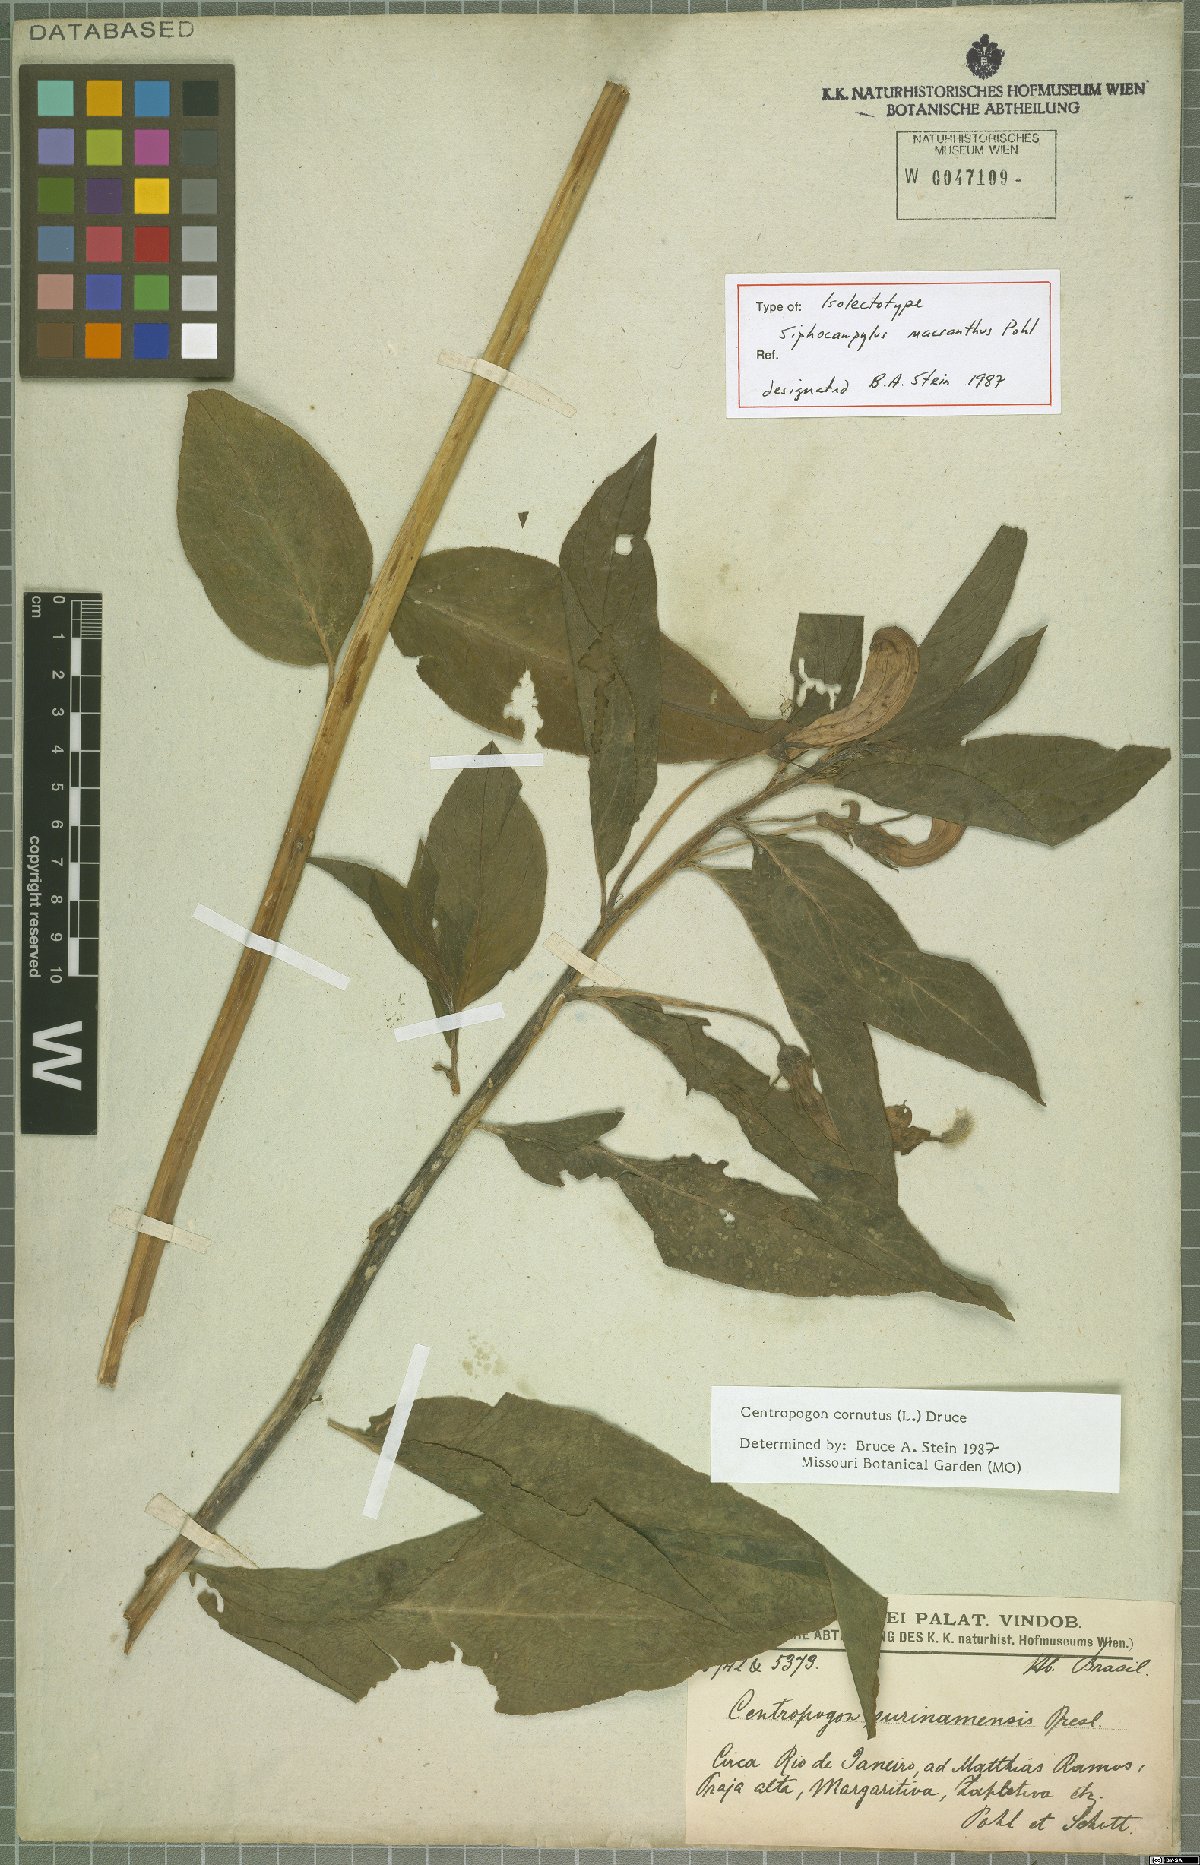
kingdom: Plantae
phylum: Tracheophyta
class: Magnoliopsida
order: Asterales
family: Campanulaceae
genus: Centropogon
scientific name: Centropogon cornutus
